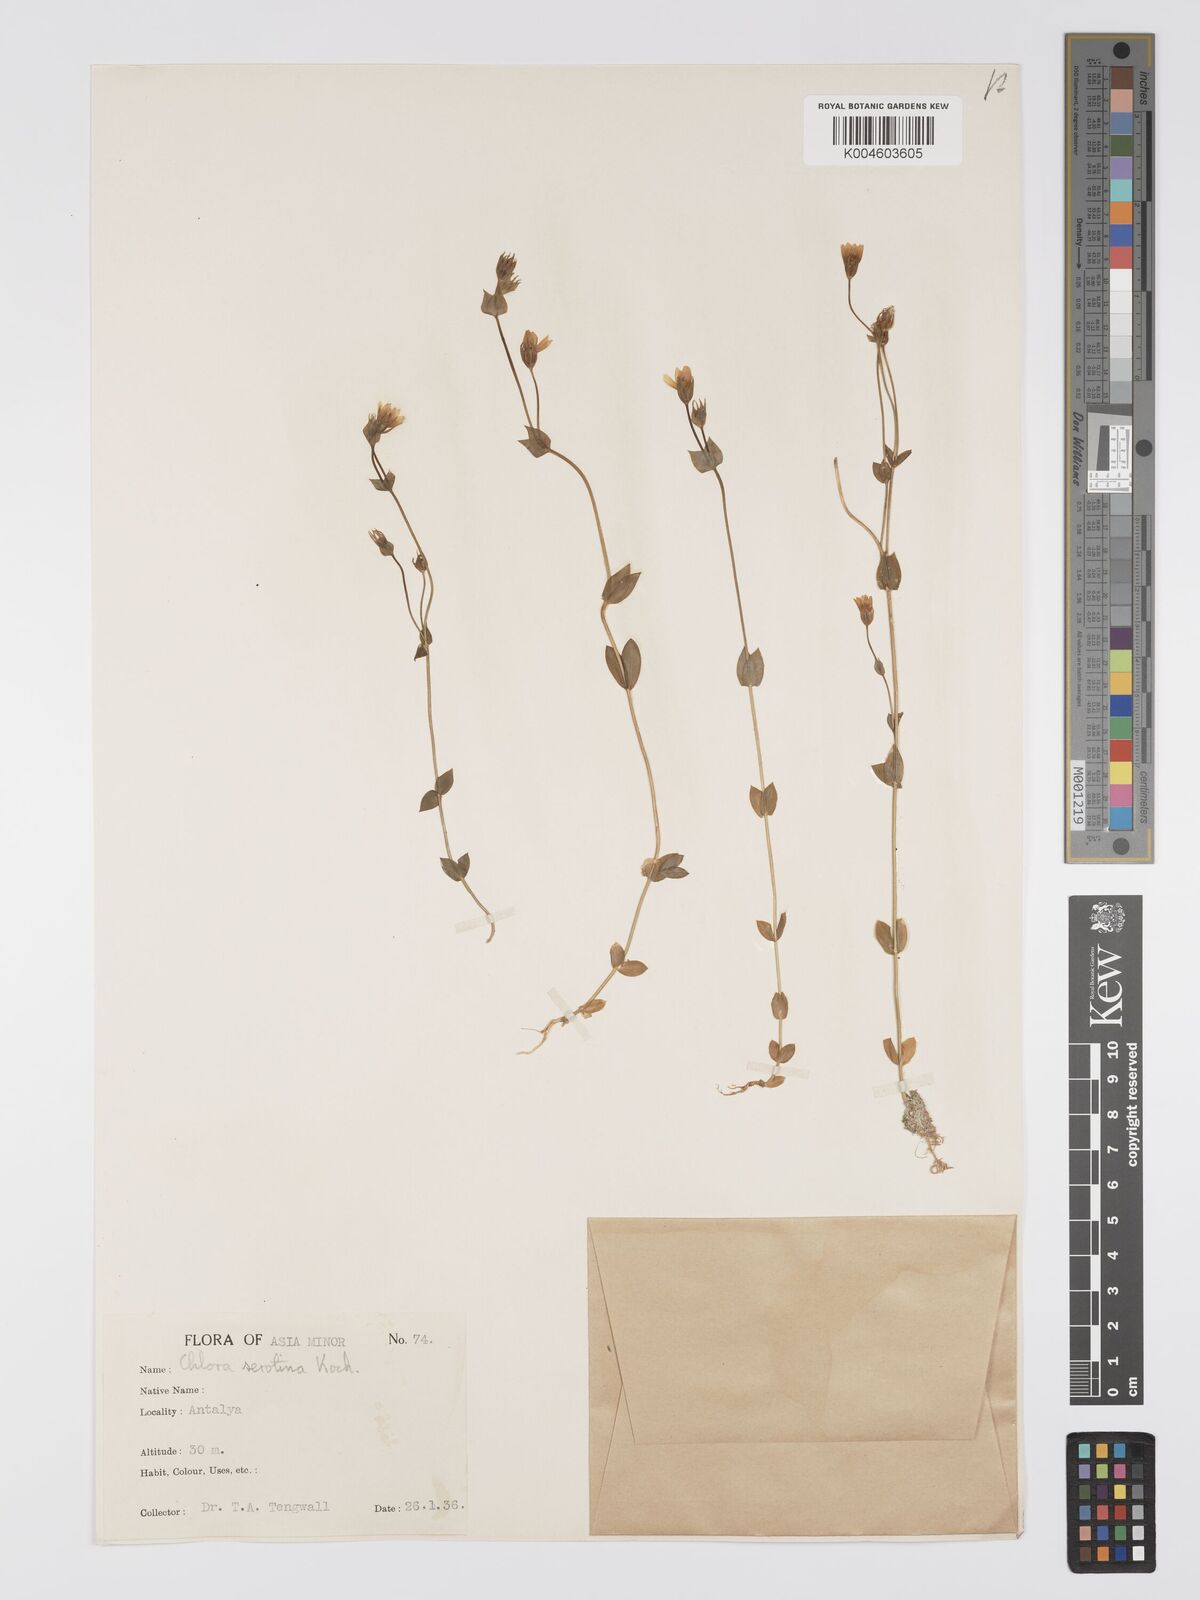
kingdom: Plantae
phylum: Tracheophyta
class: Magnoliopsida
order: Gentianales
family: Gentianaceae
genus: Blackstonia
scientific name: Blackstonia acuminata
